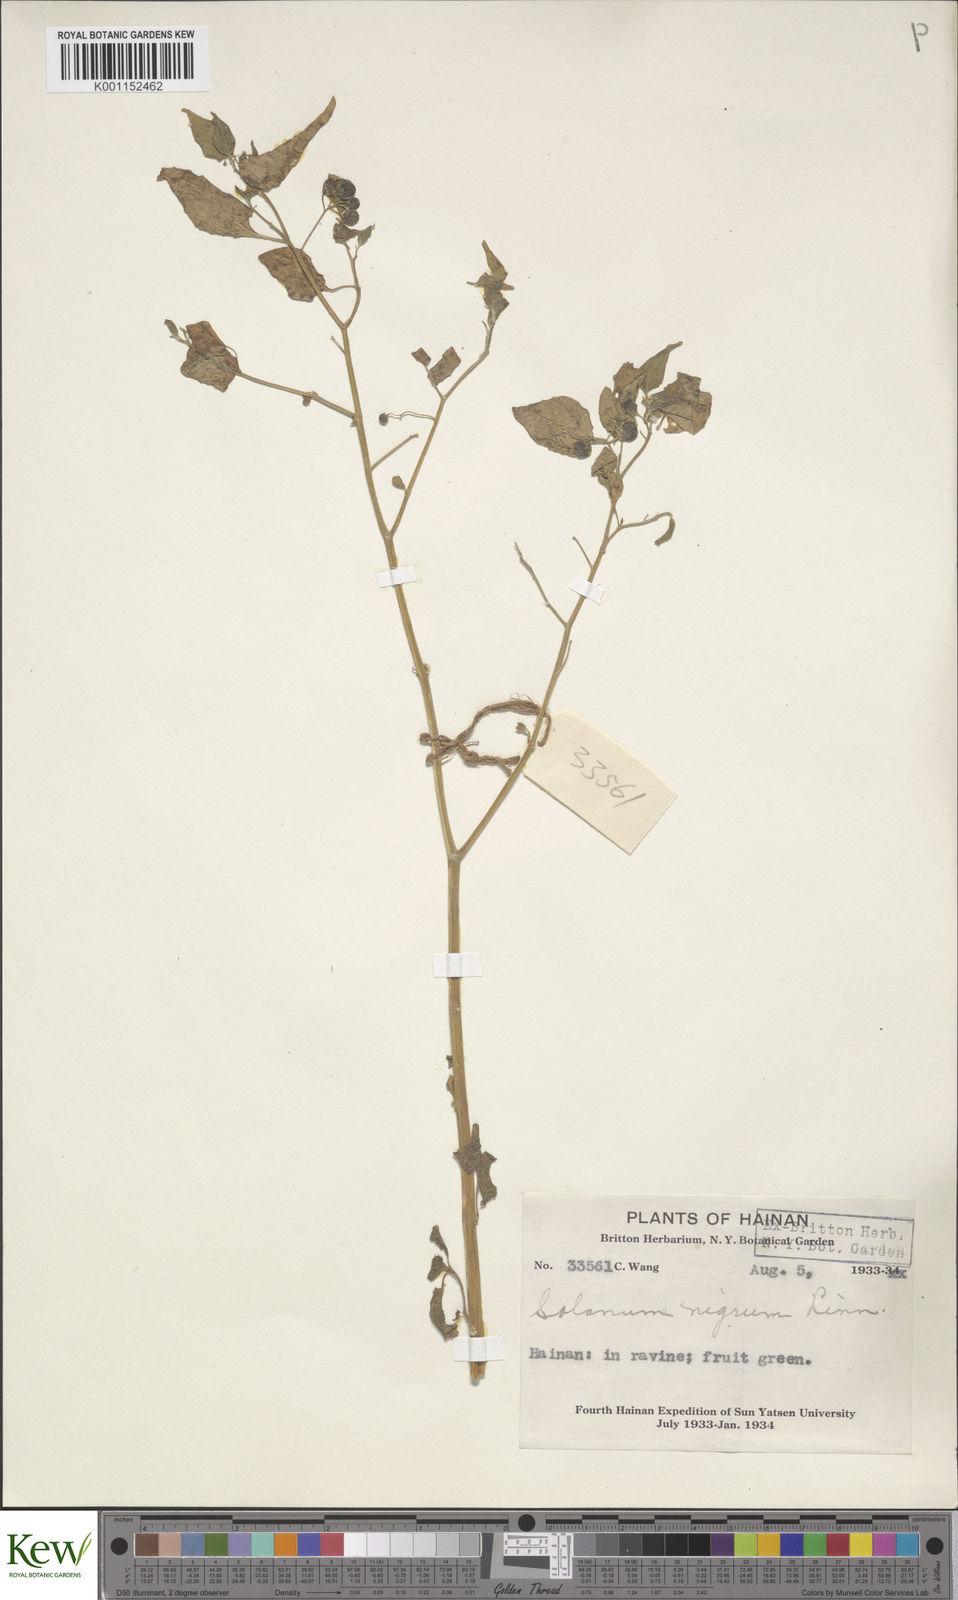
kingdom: Plantae
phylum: Tracheophyta
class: Magnoliopsida
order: Solanales
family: Solanaceae
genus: Solanum
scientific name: Solanum nigrum
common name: Black nightshade
